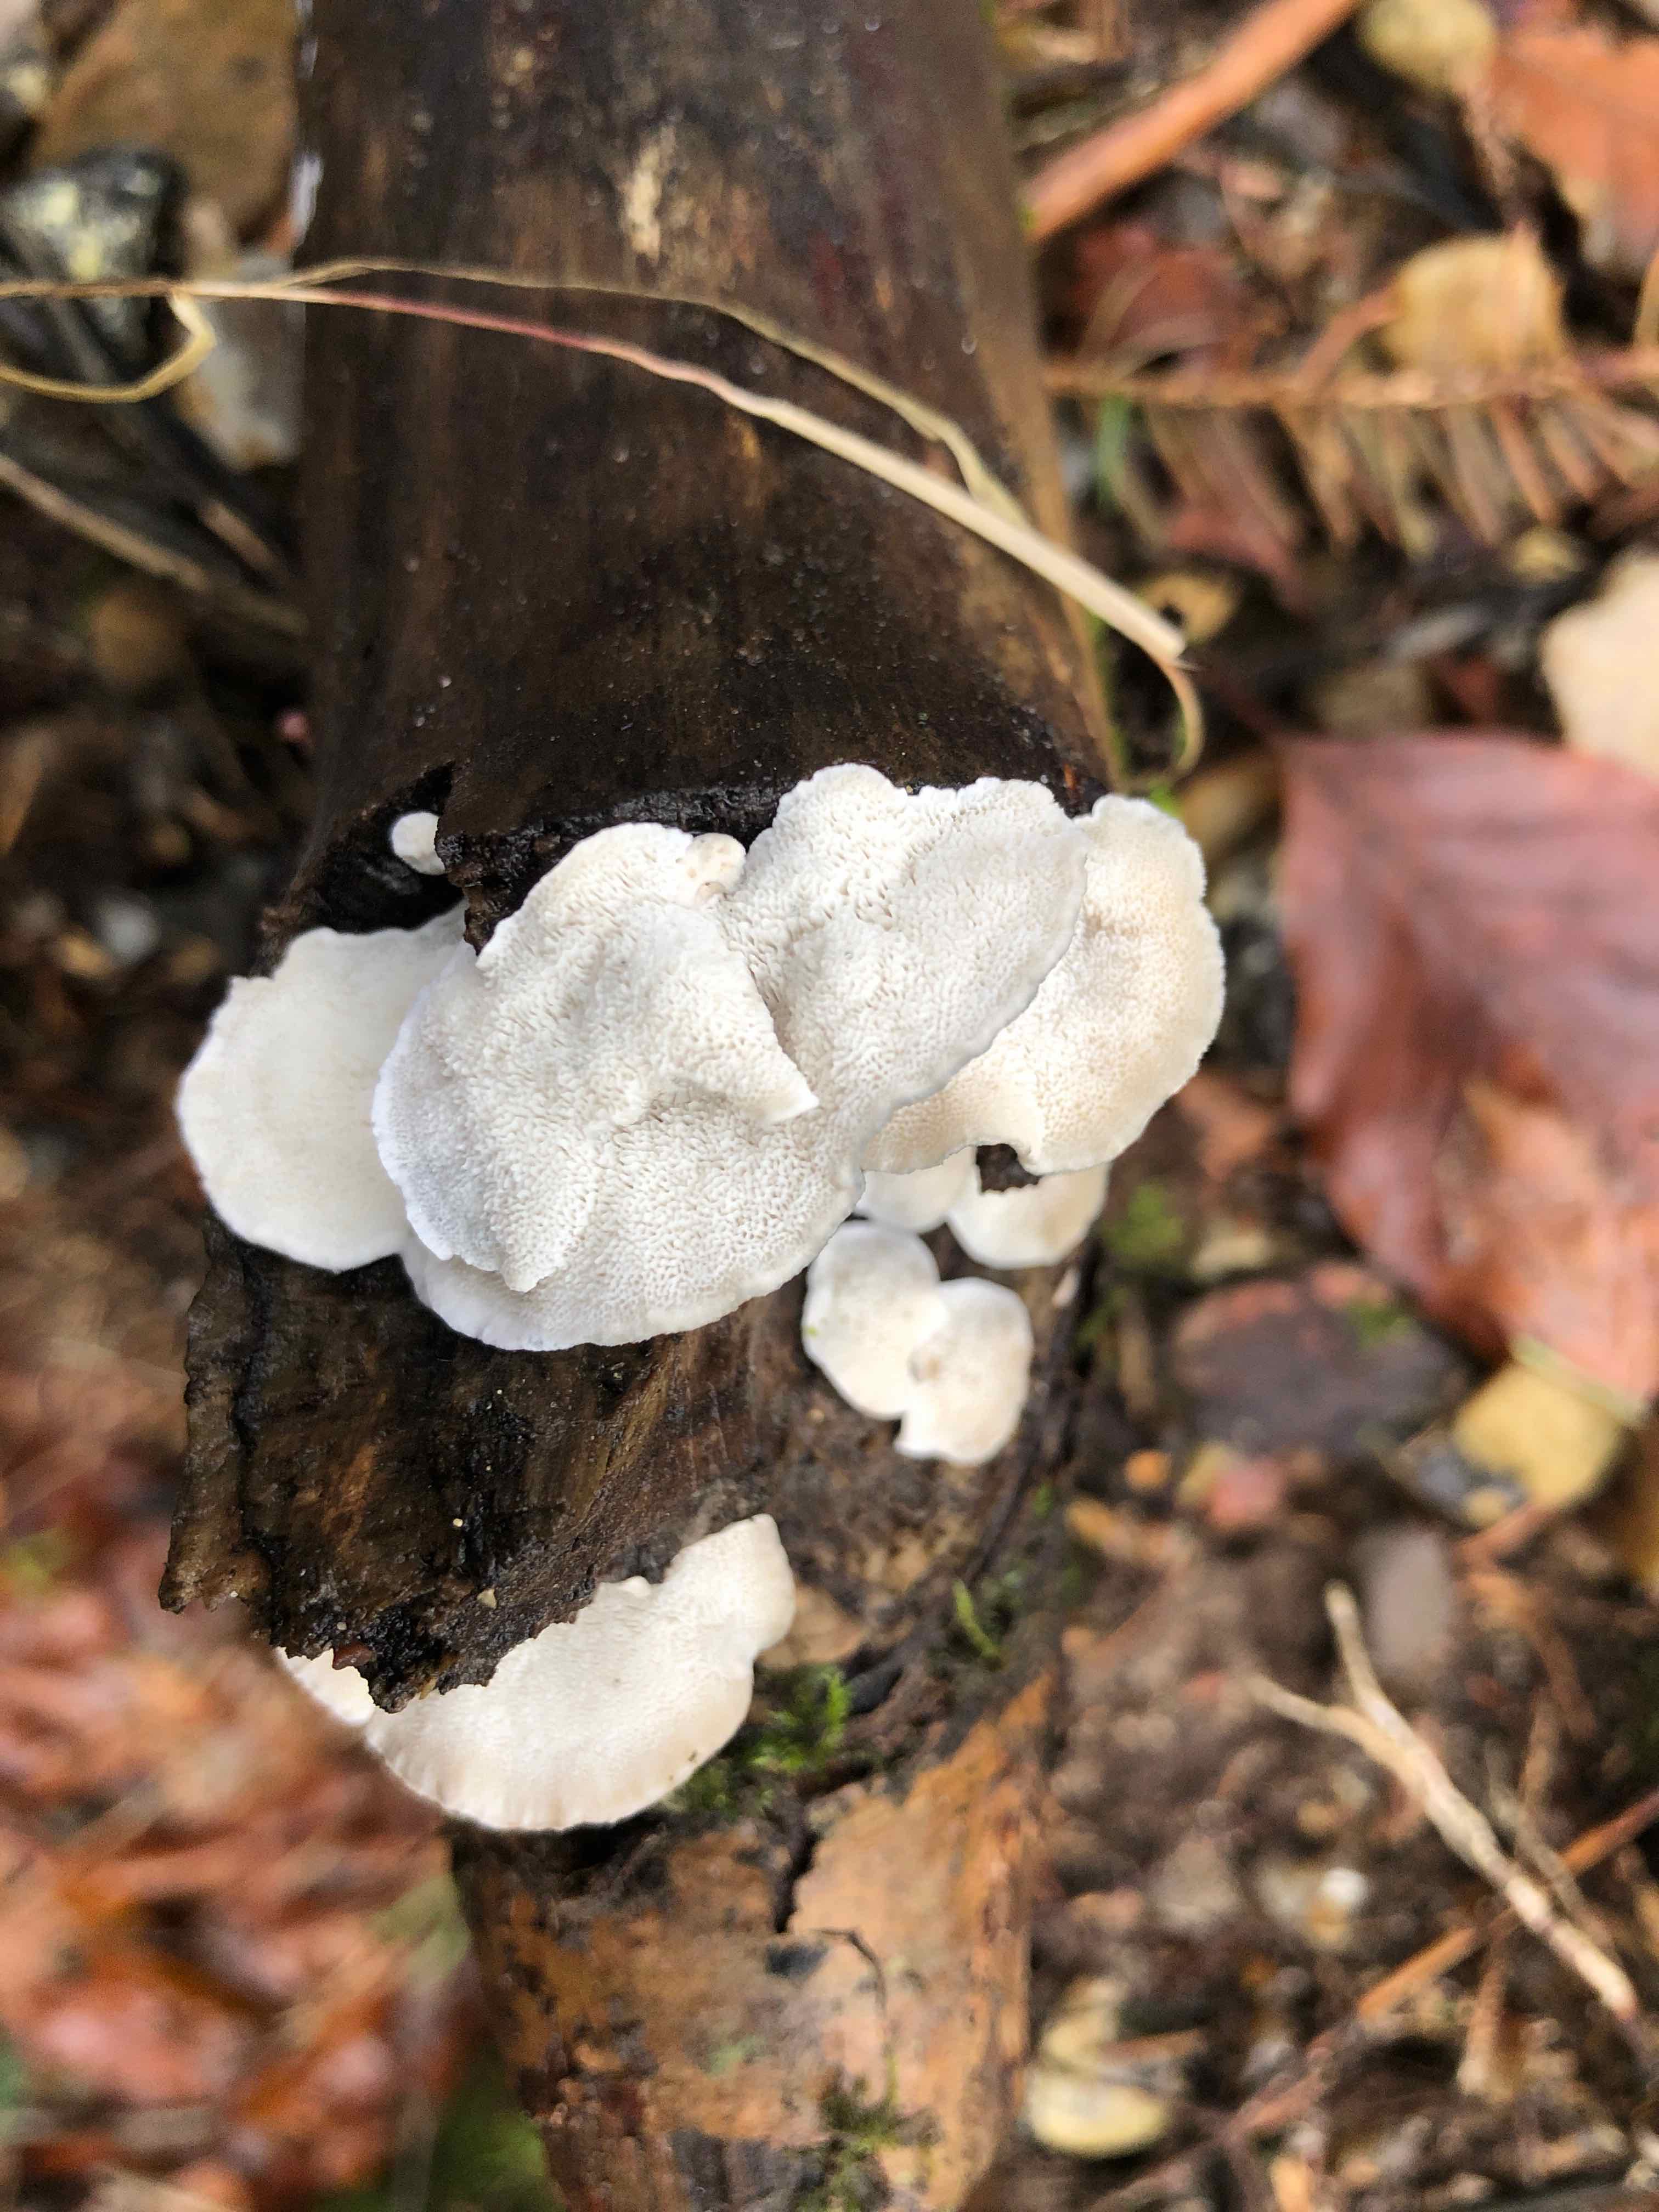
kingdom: Fungi
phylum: Basidiomycota
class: Agaricomycetes
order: Polyporales
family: Polyporaceae
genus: Cyanosporus
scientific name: Cyanosporus alni
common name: blegblå kødporesvamp
